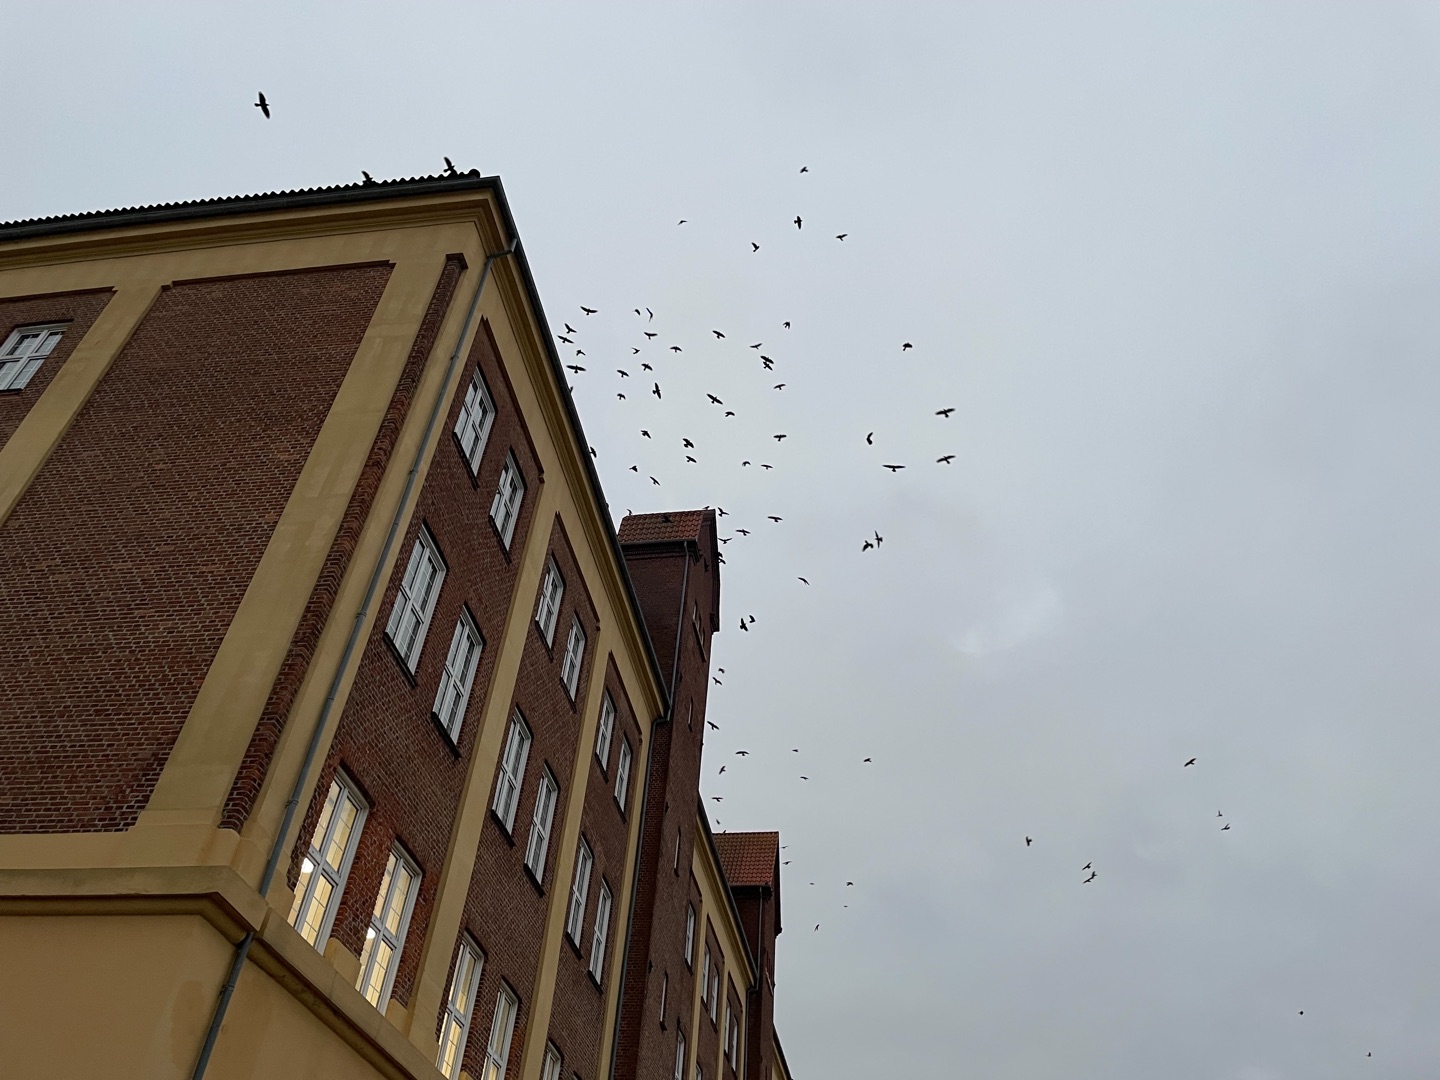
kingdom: Animalia
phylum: Chordata
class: Aves
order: Passeriformes
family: Corvidae
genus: Corvus
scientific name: Corvus frugilegus
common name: Råge
